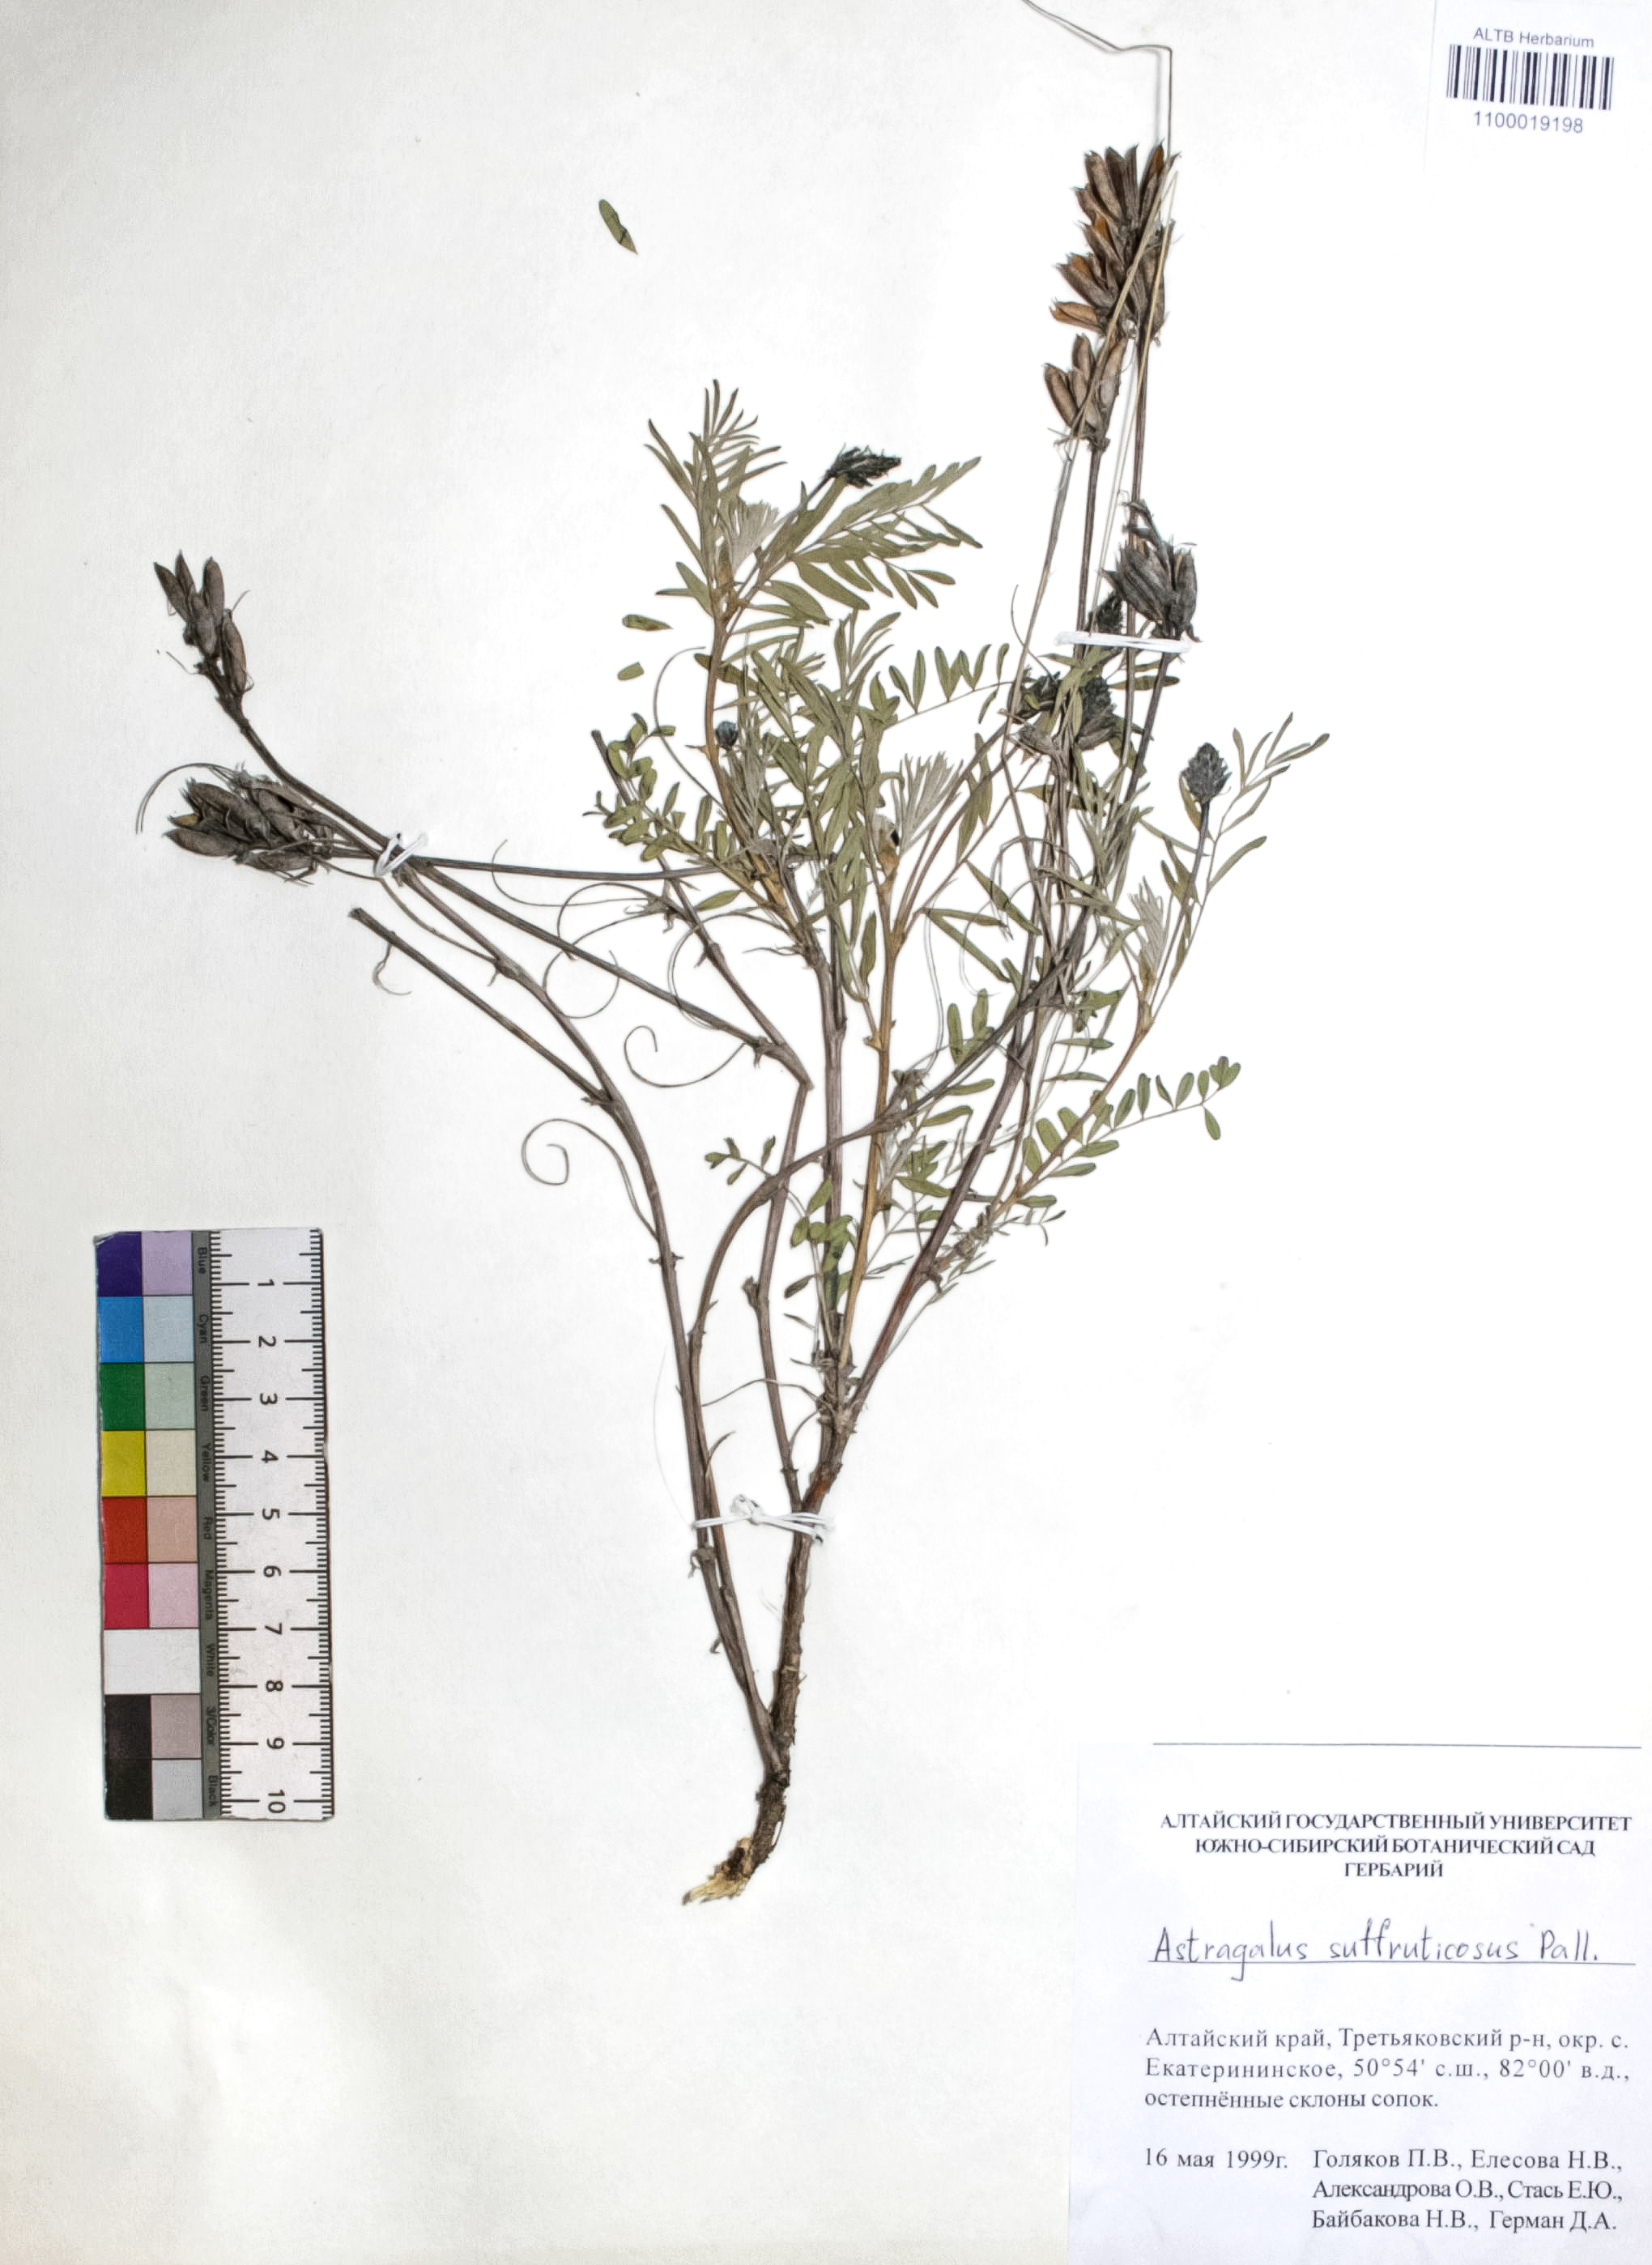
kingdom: Plantae
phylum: Tracheophyta
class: Magnoliopsida
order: Fabales
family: Fabaceae
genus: Astragalus
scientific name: Astragalus syriacus
